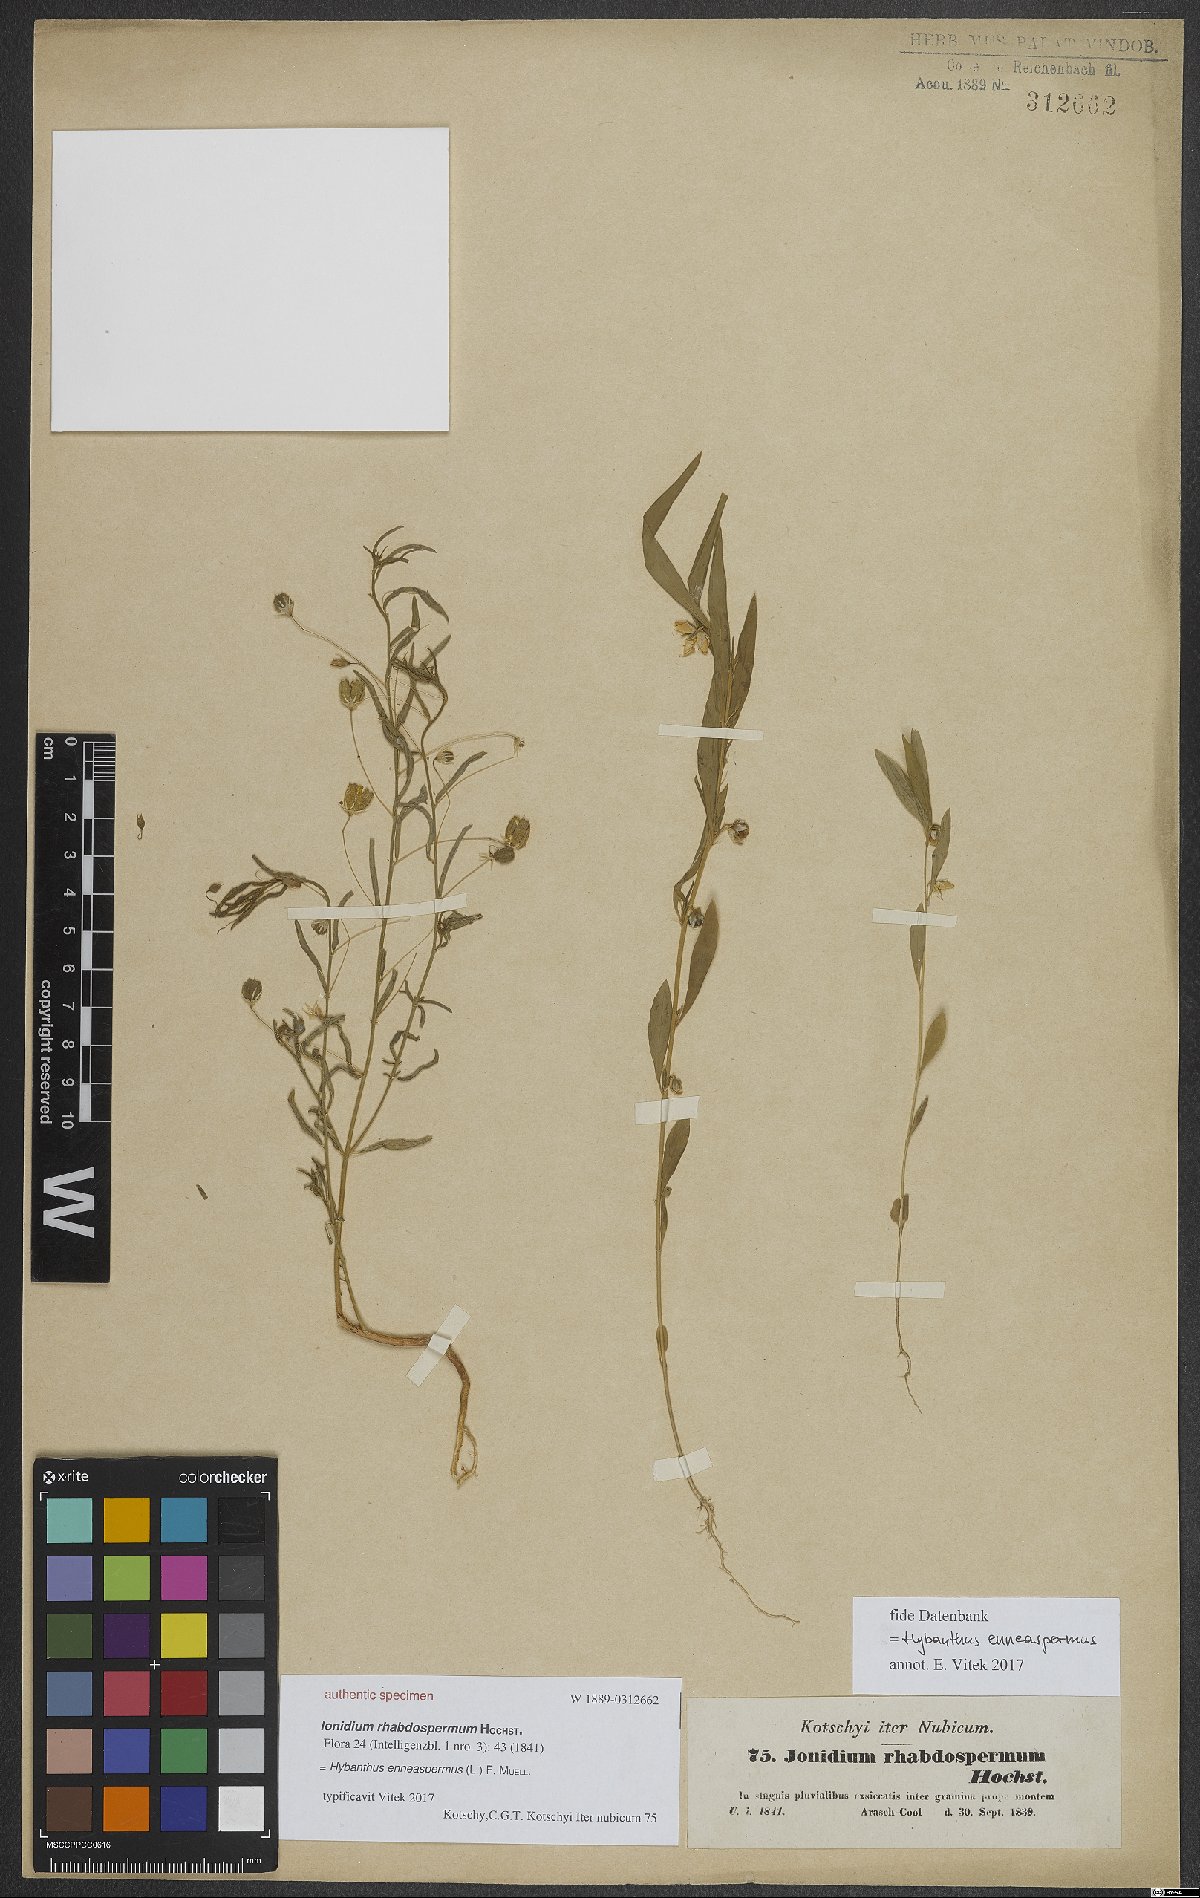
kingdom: Plantae
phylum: Tracheophyta
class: Magnoliopsida
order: Malpighiales
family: Violaceae
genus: Pigea
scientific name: Pigea enneasperma
